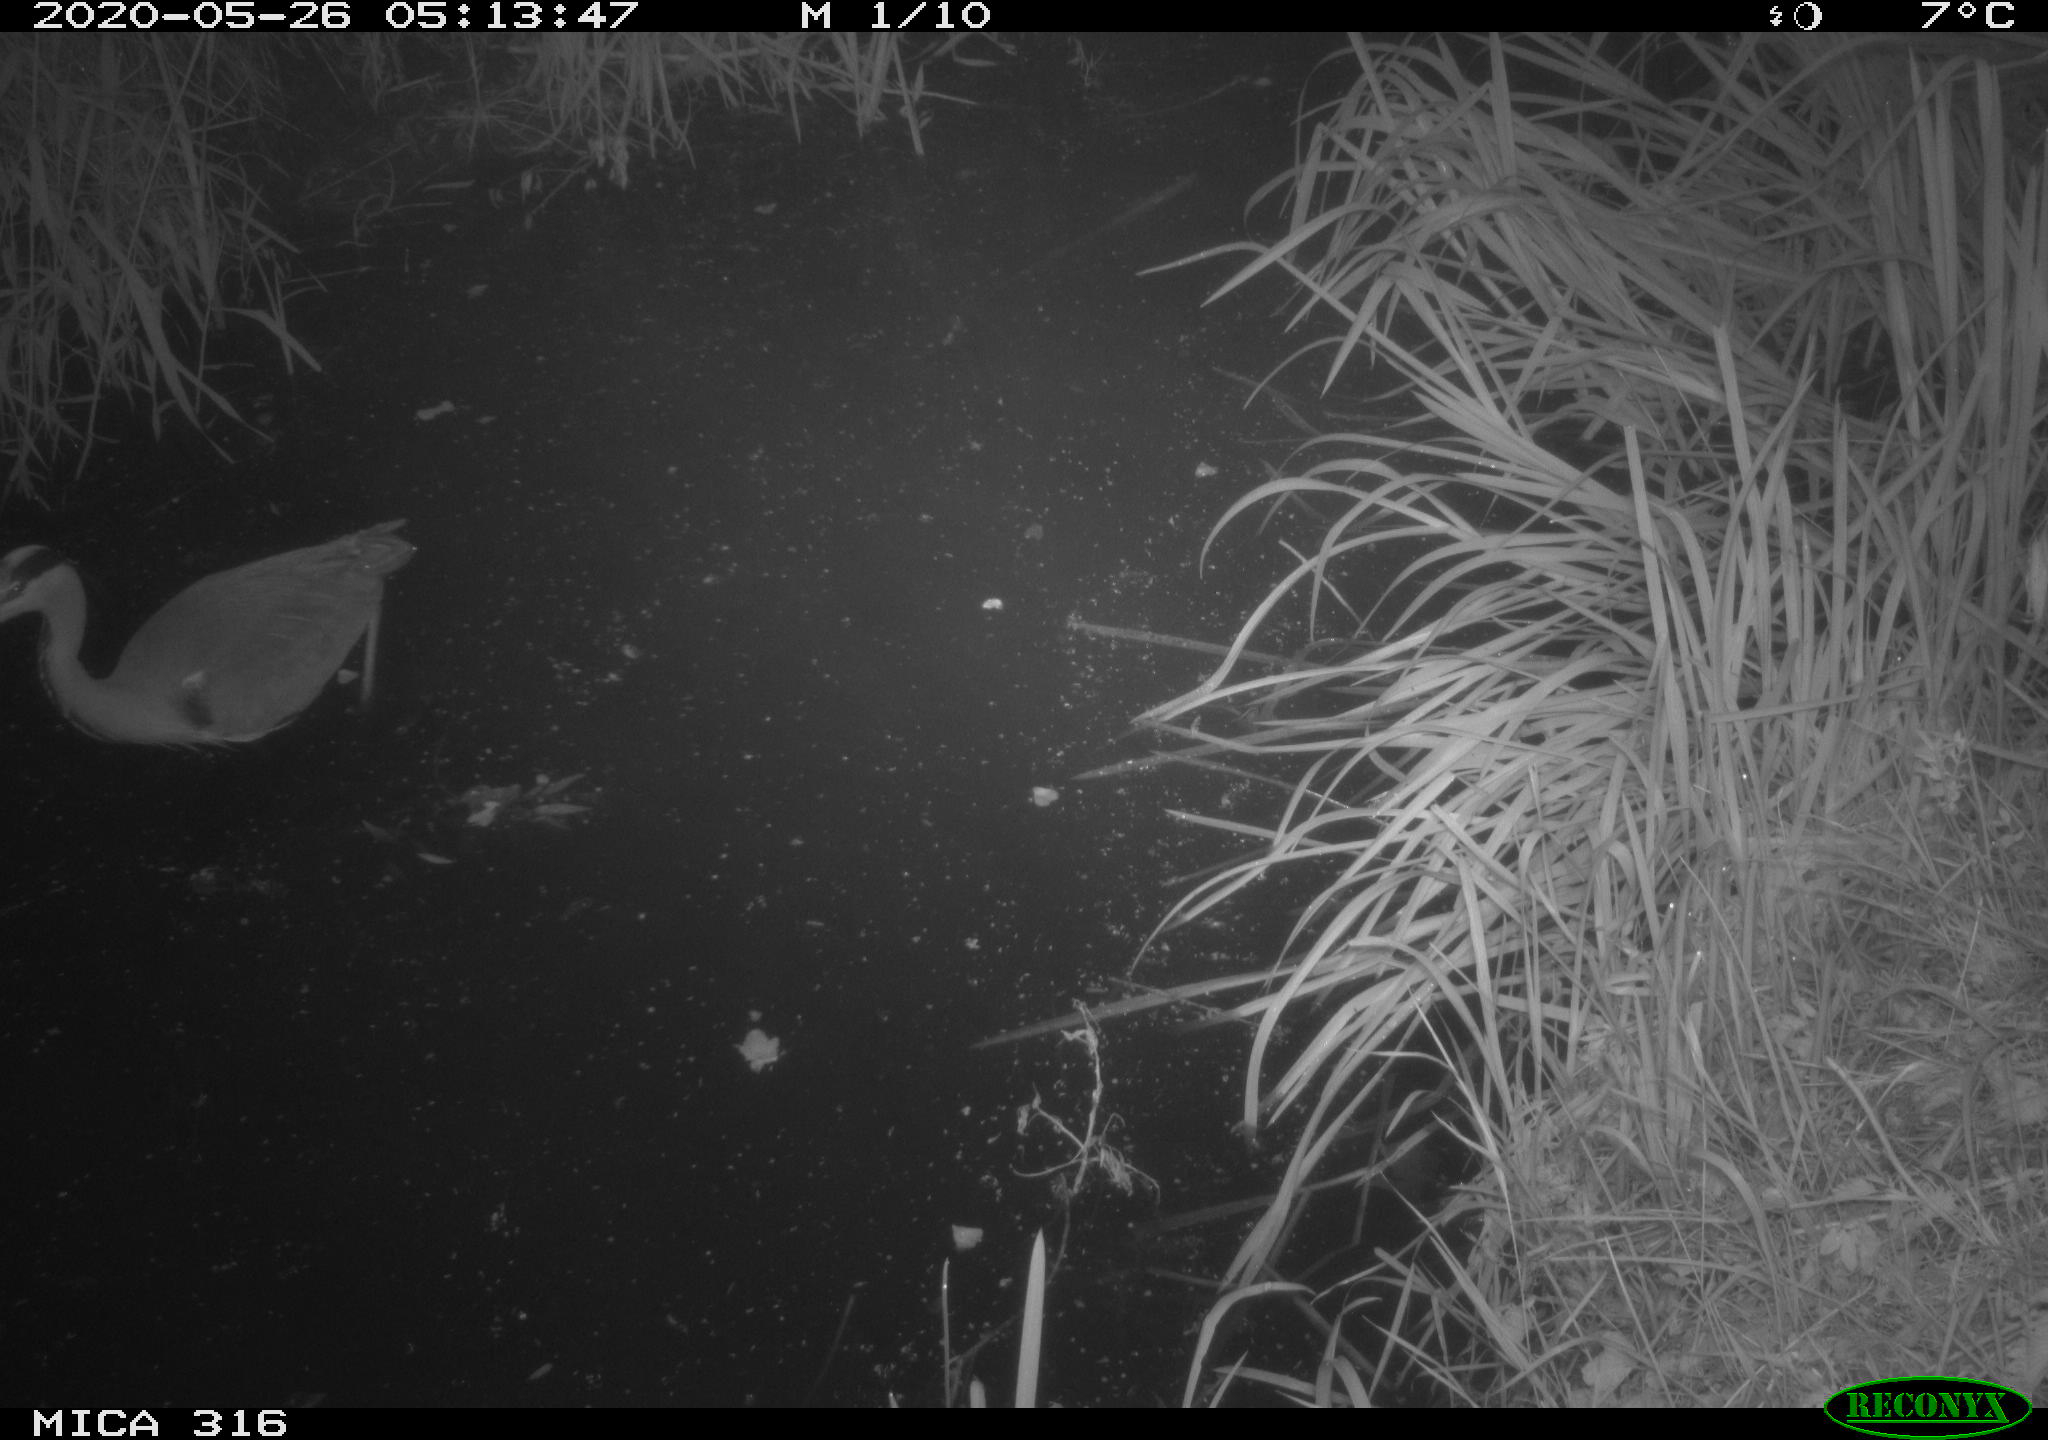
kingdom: Animalia
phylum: Chordata
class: Aves
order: Pelecaniformes
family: Ardeidae
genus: Ardea
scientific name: Ardea cinerea
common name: Grey heron
